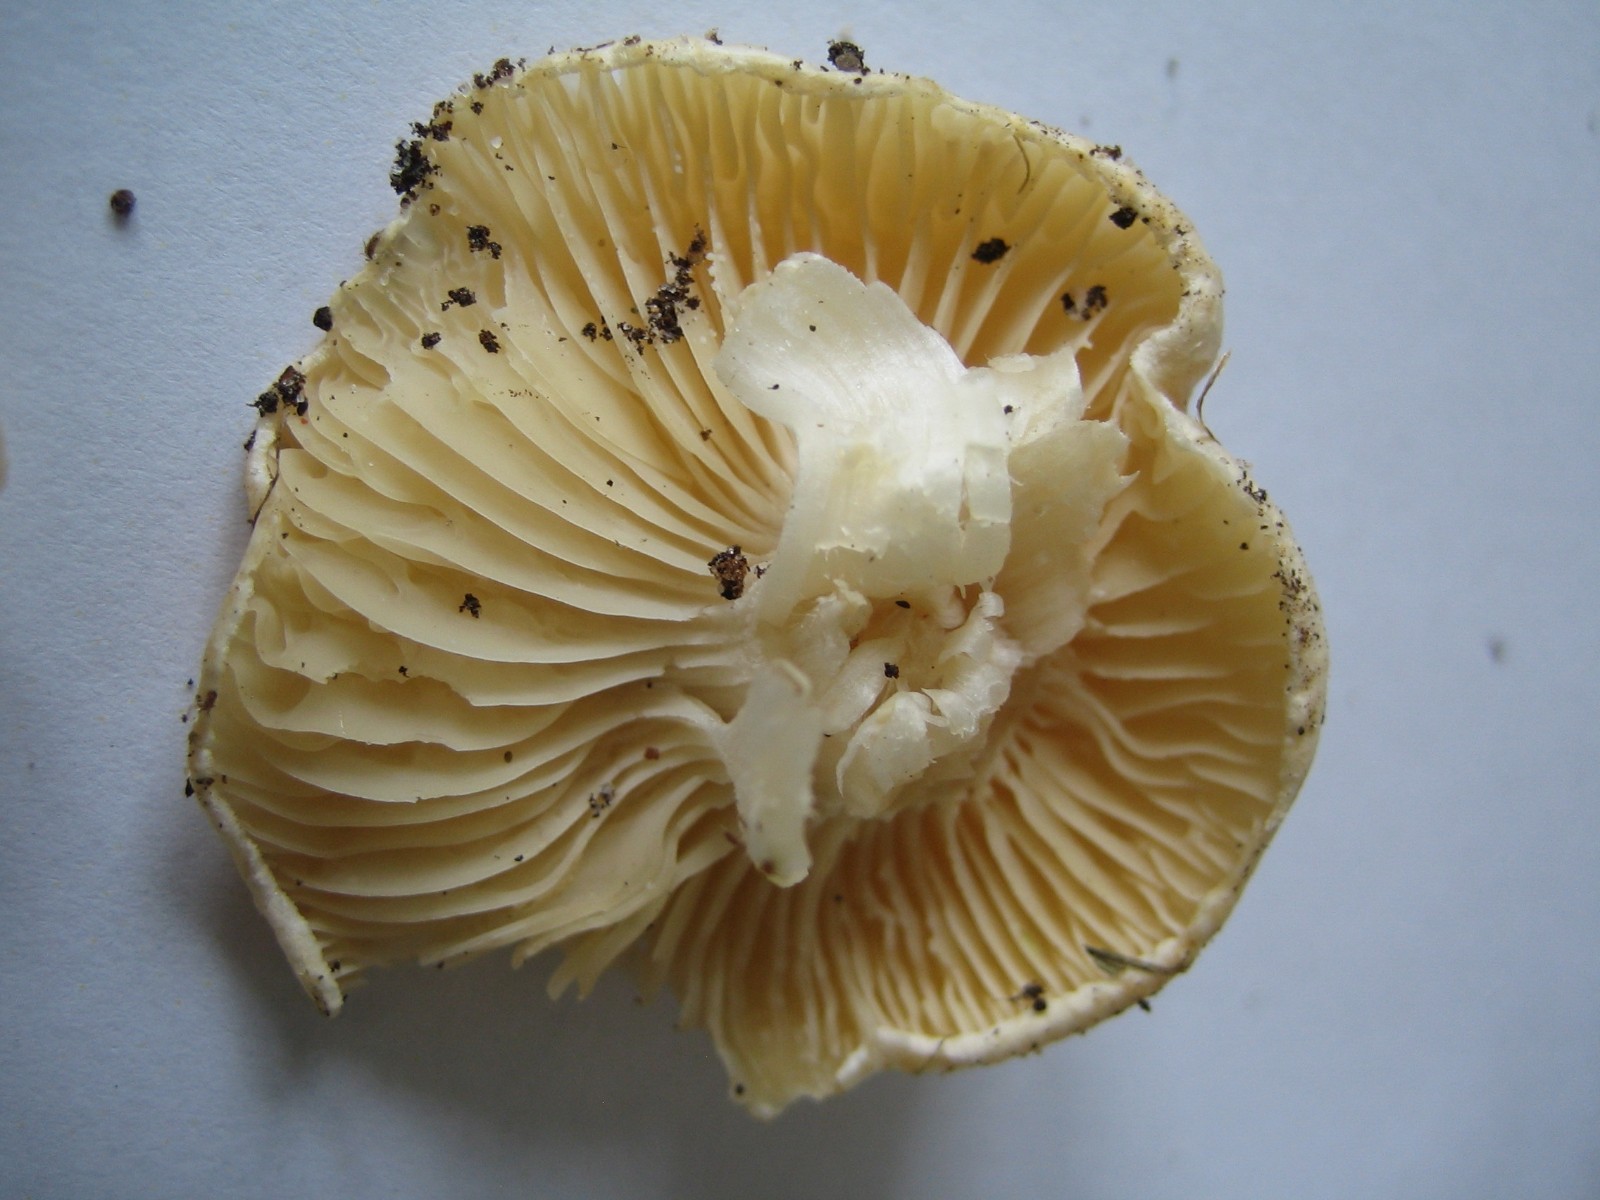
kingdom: Fungi
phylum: Basidiomycota
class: Agaricomycetes
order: Agaricales
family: Entolomataceae
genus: Clitopilus
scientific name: Clitopilus prunulus
